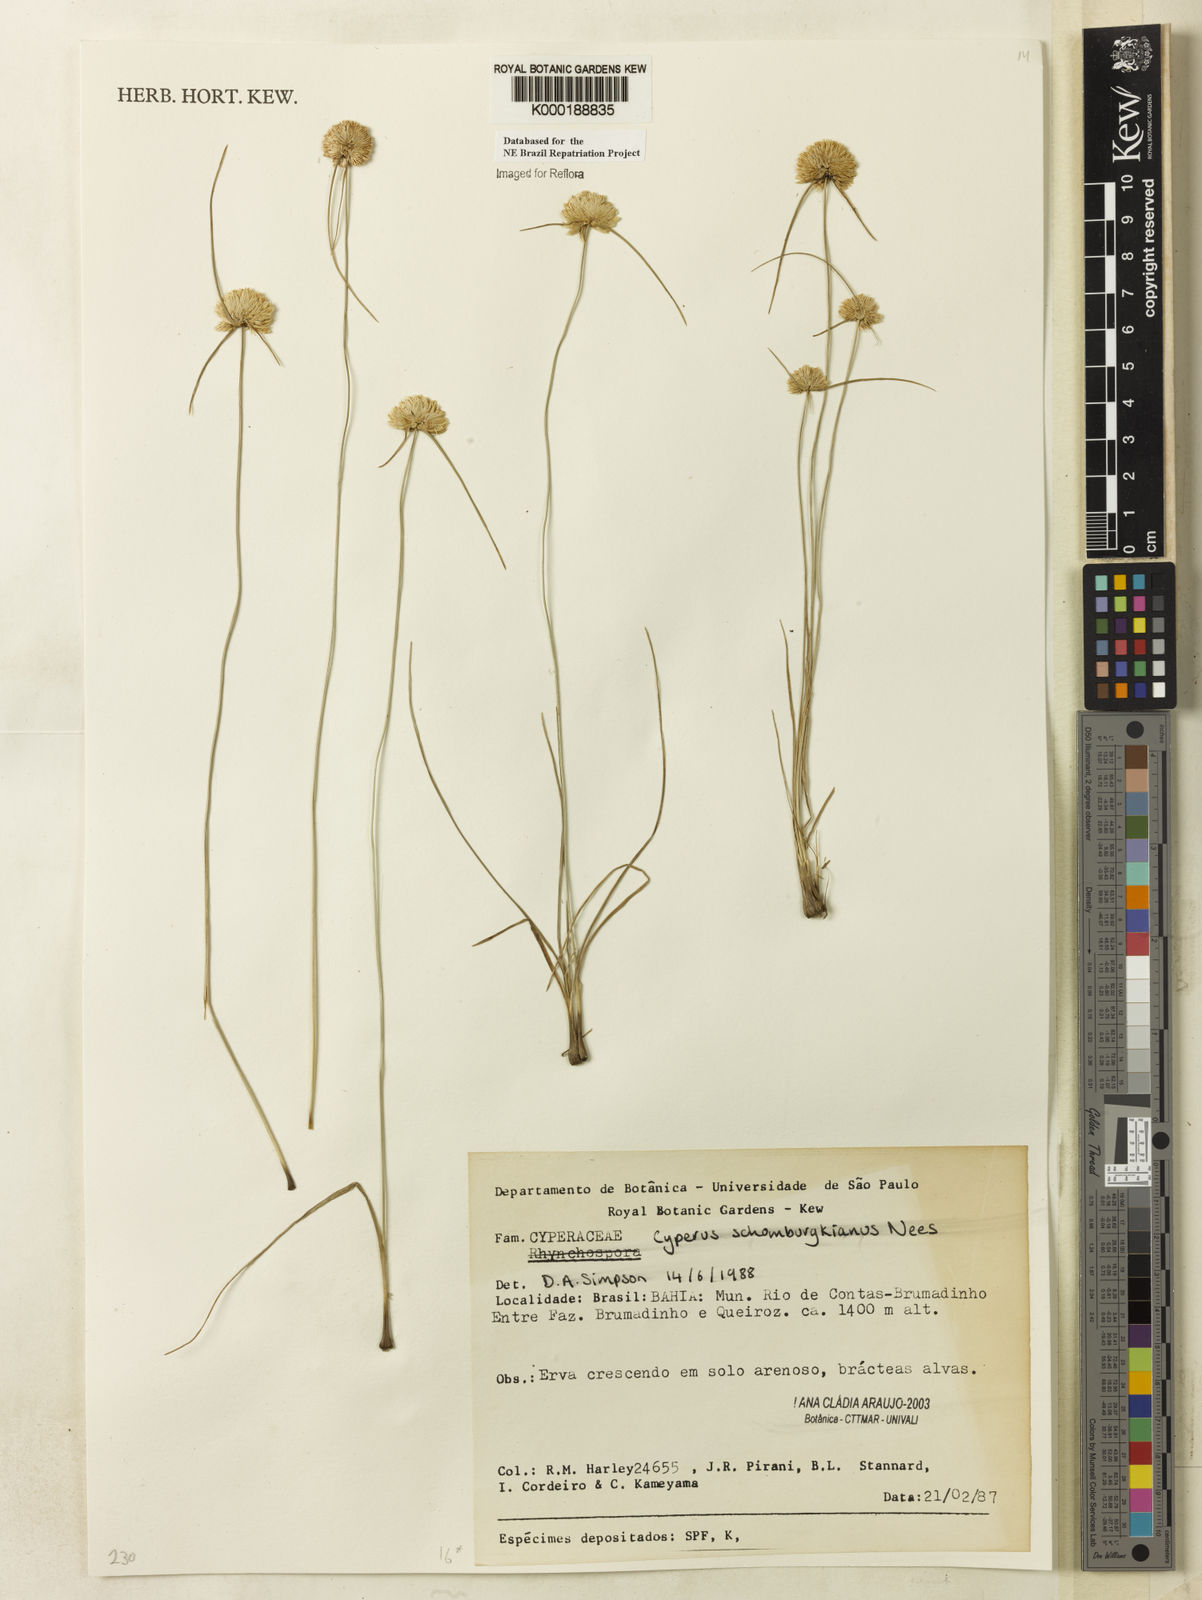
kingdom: Plantae
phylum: Tracheophyta
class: Liliopsida
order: Poales
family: Cyperaceae
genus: Cyperus
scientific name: Cyperus schomburgkianus
